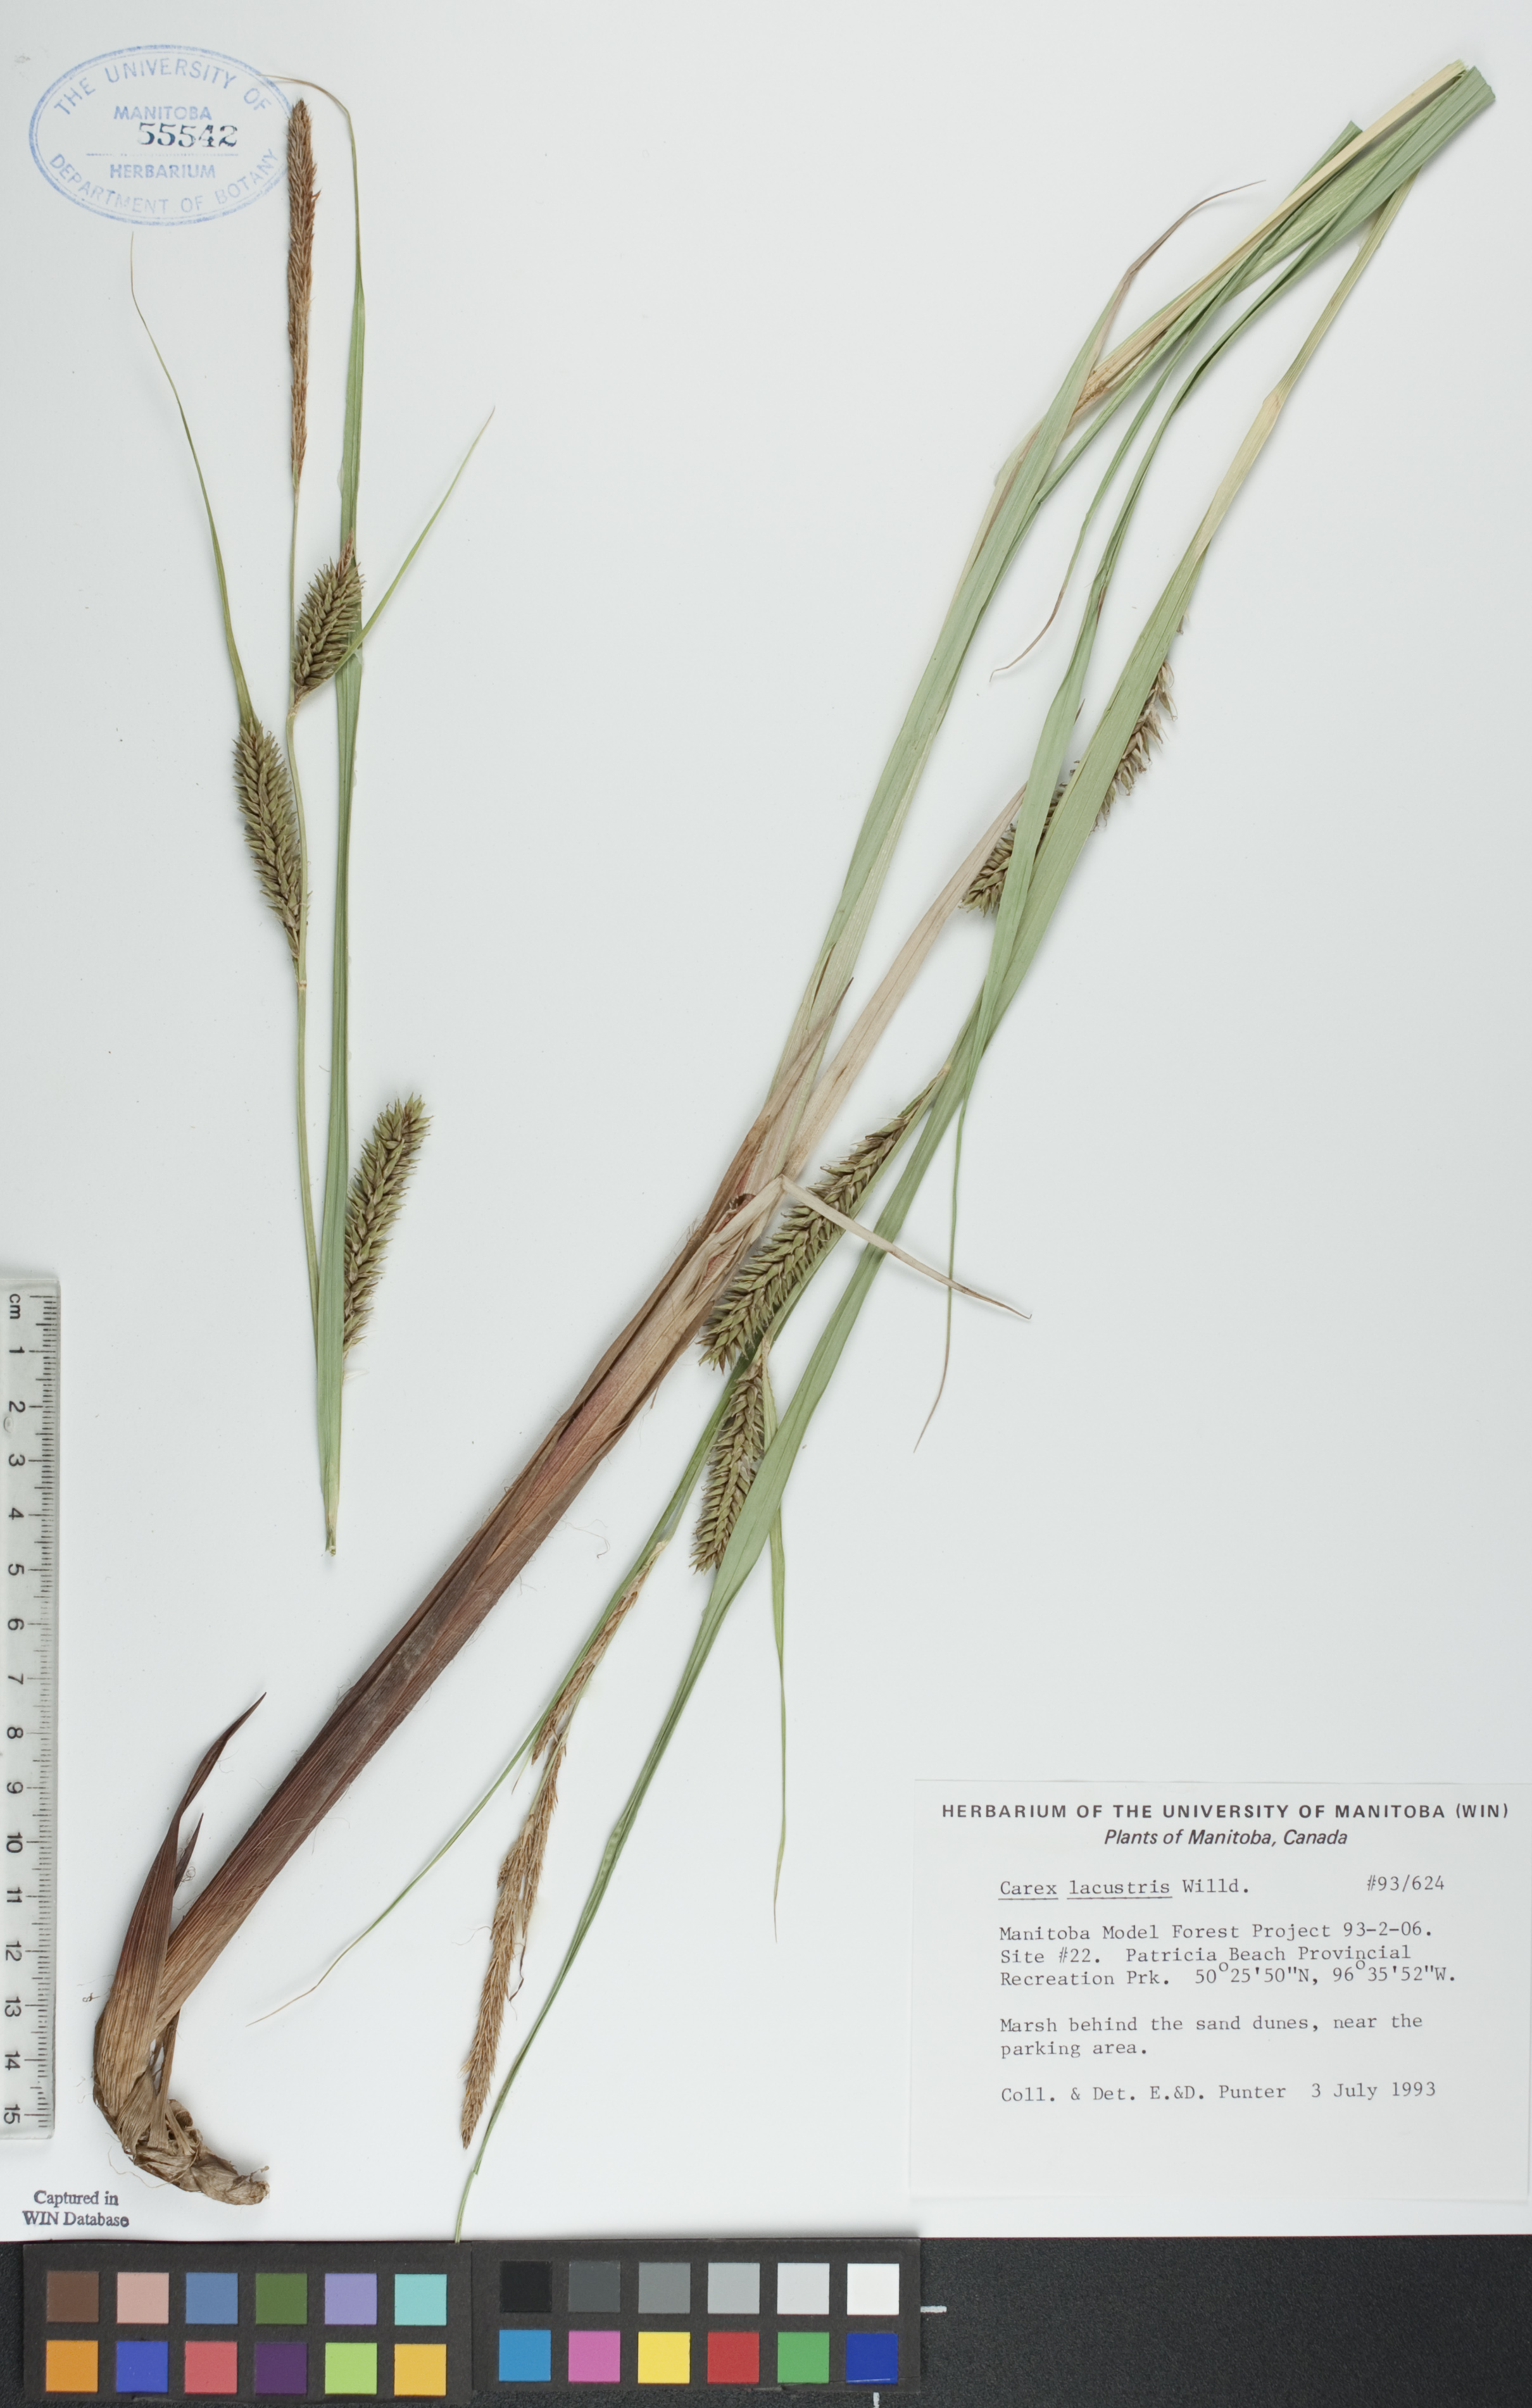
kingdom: Plantae
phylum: Tracheophyta
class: Liliopsida
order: Poales
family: Cyperaceae
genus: Carex
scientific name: Carex lacustris
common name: Common lake sedge
